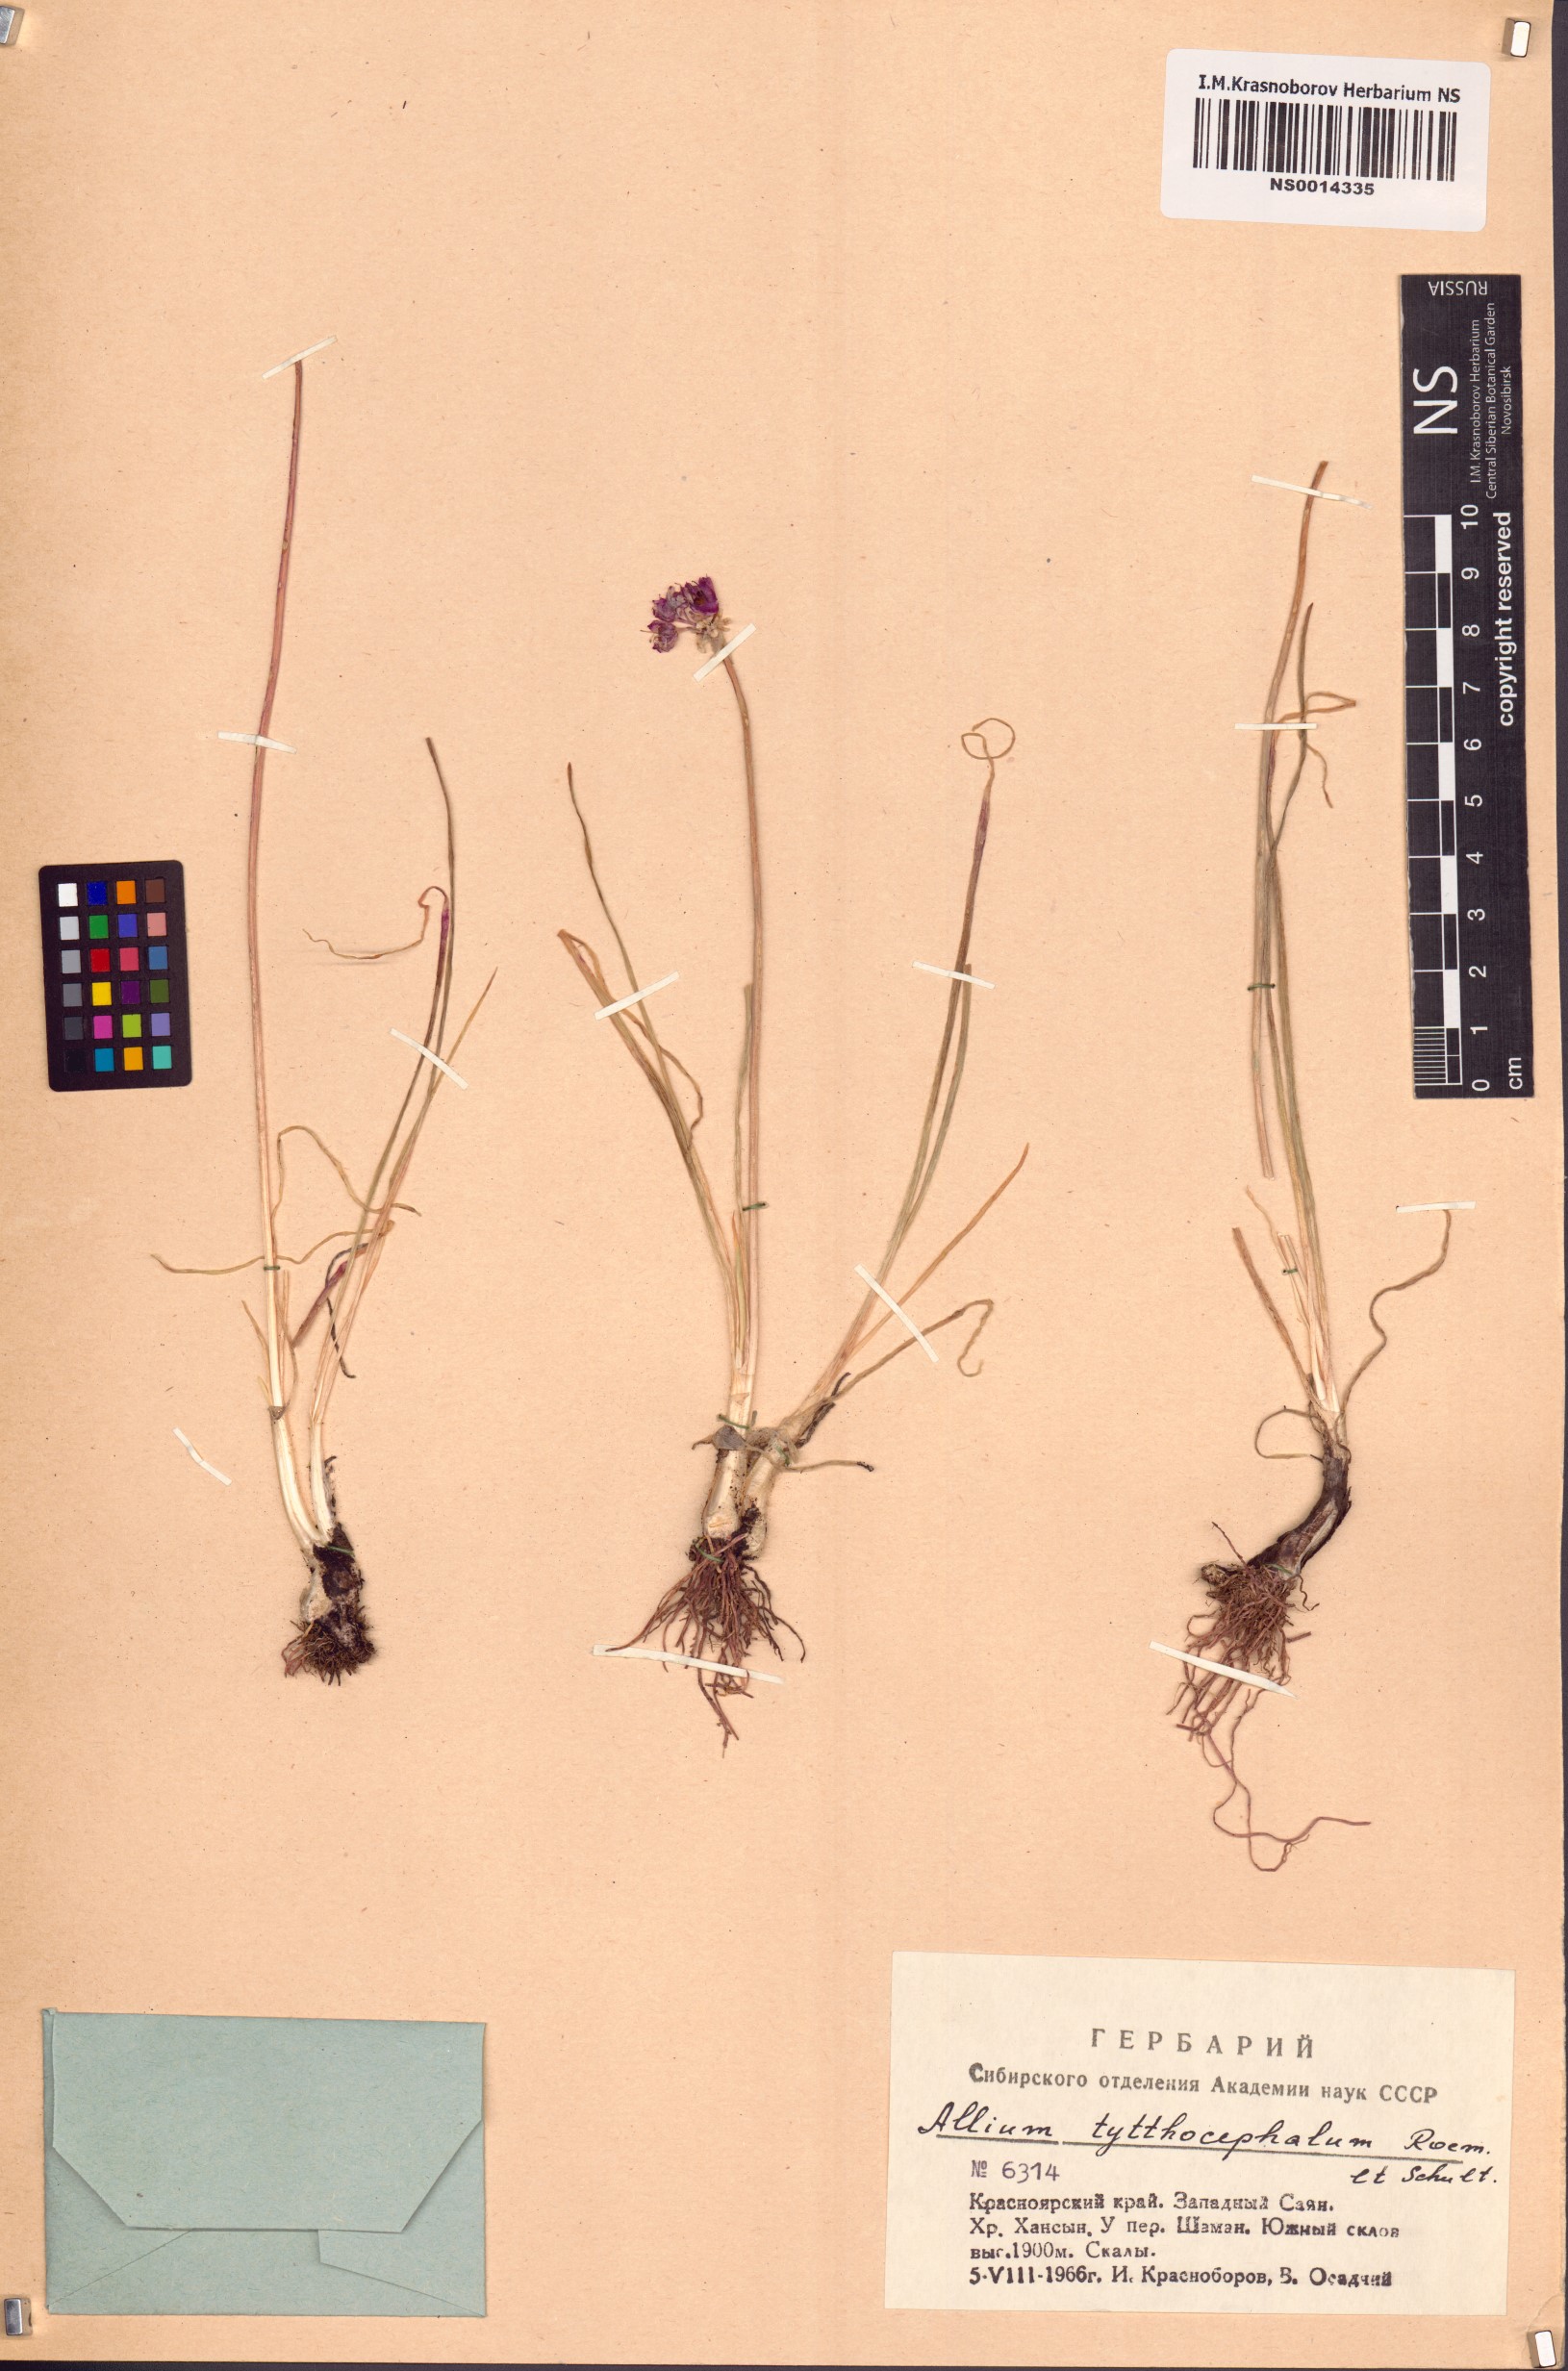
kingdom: Plantae
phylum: Tracheophyta
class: Liliopsida
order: Asparagales
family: Amaryllidaceae
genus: Allium
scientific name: Allium tytthocephalum
